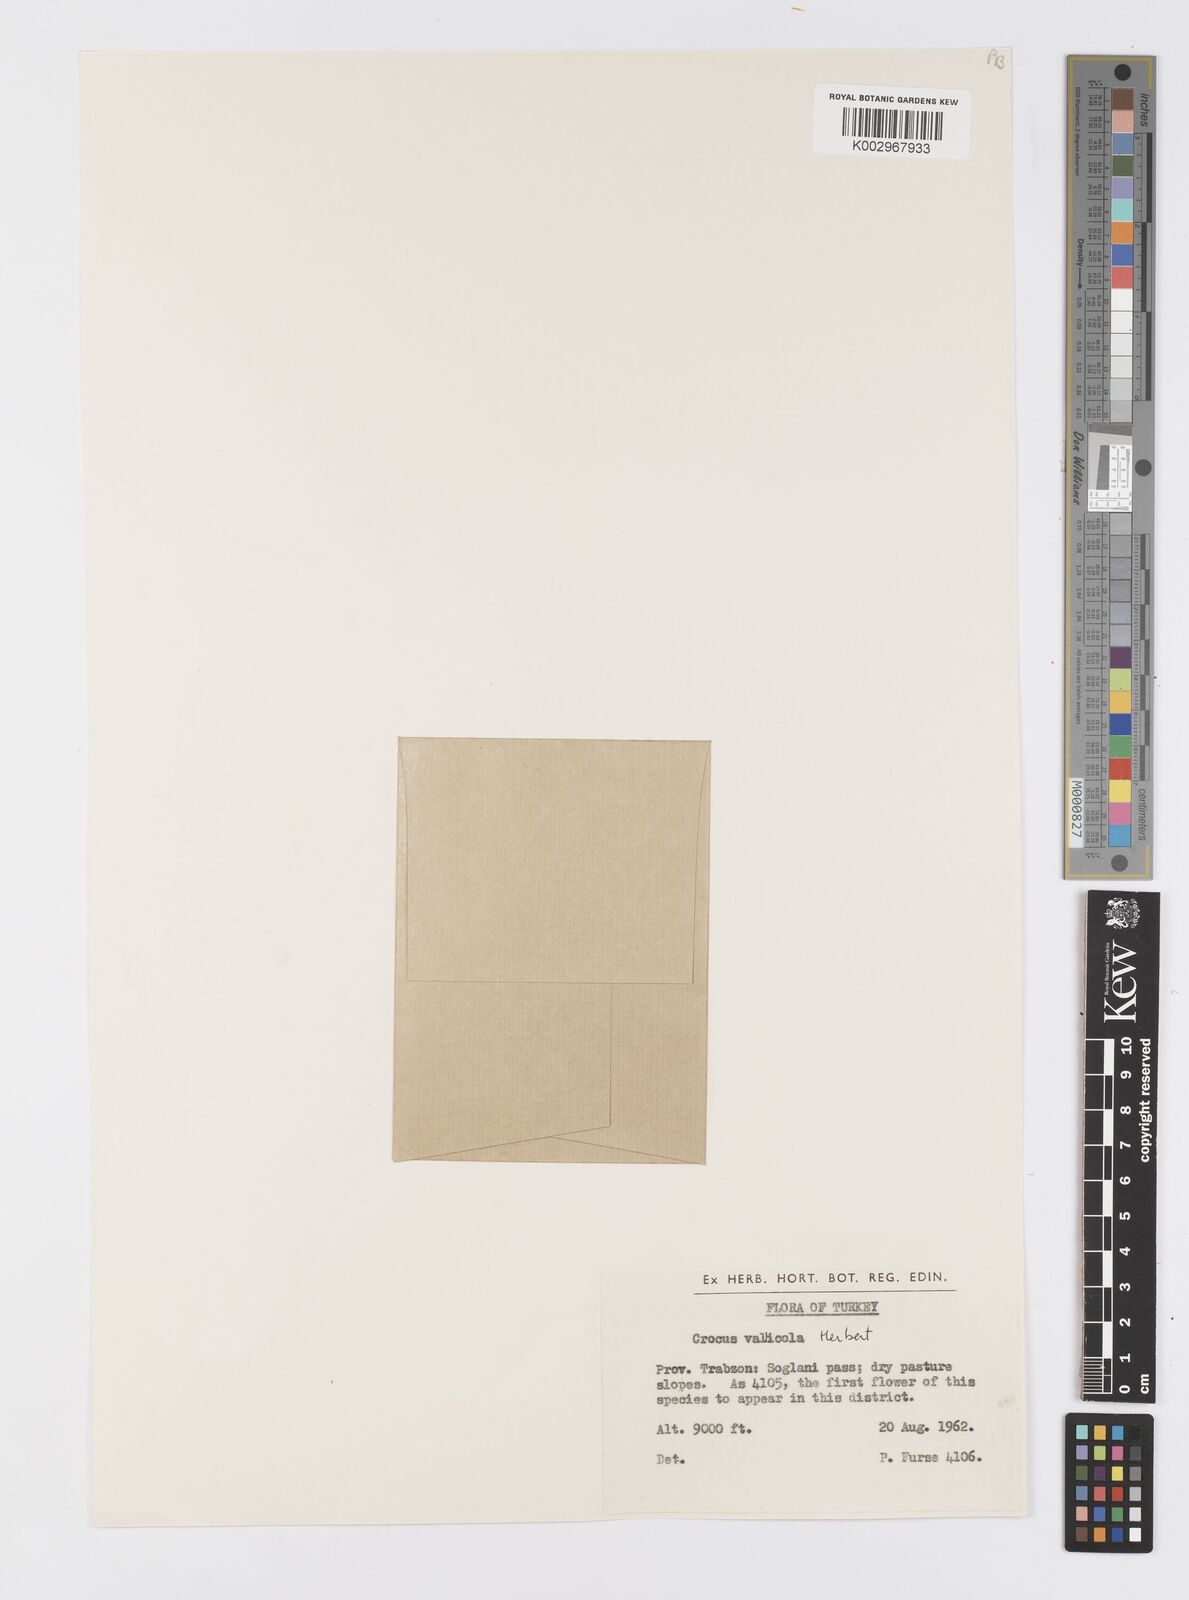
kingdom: Plantae
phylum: Tracheophyta
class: Liliopsida
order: Asparagales
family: Iridaceae
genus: Crocus
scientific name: Crocus vallicola
